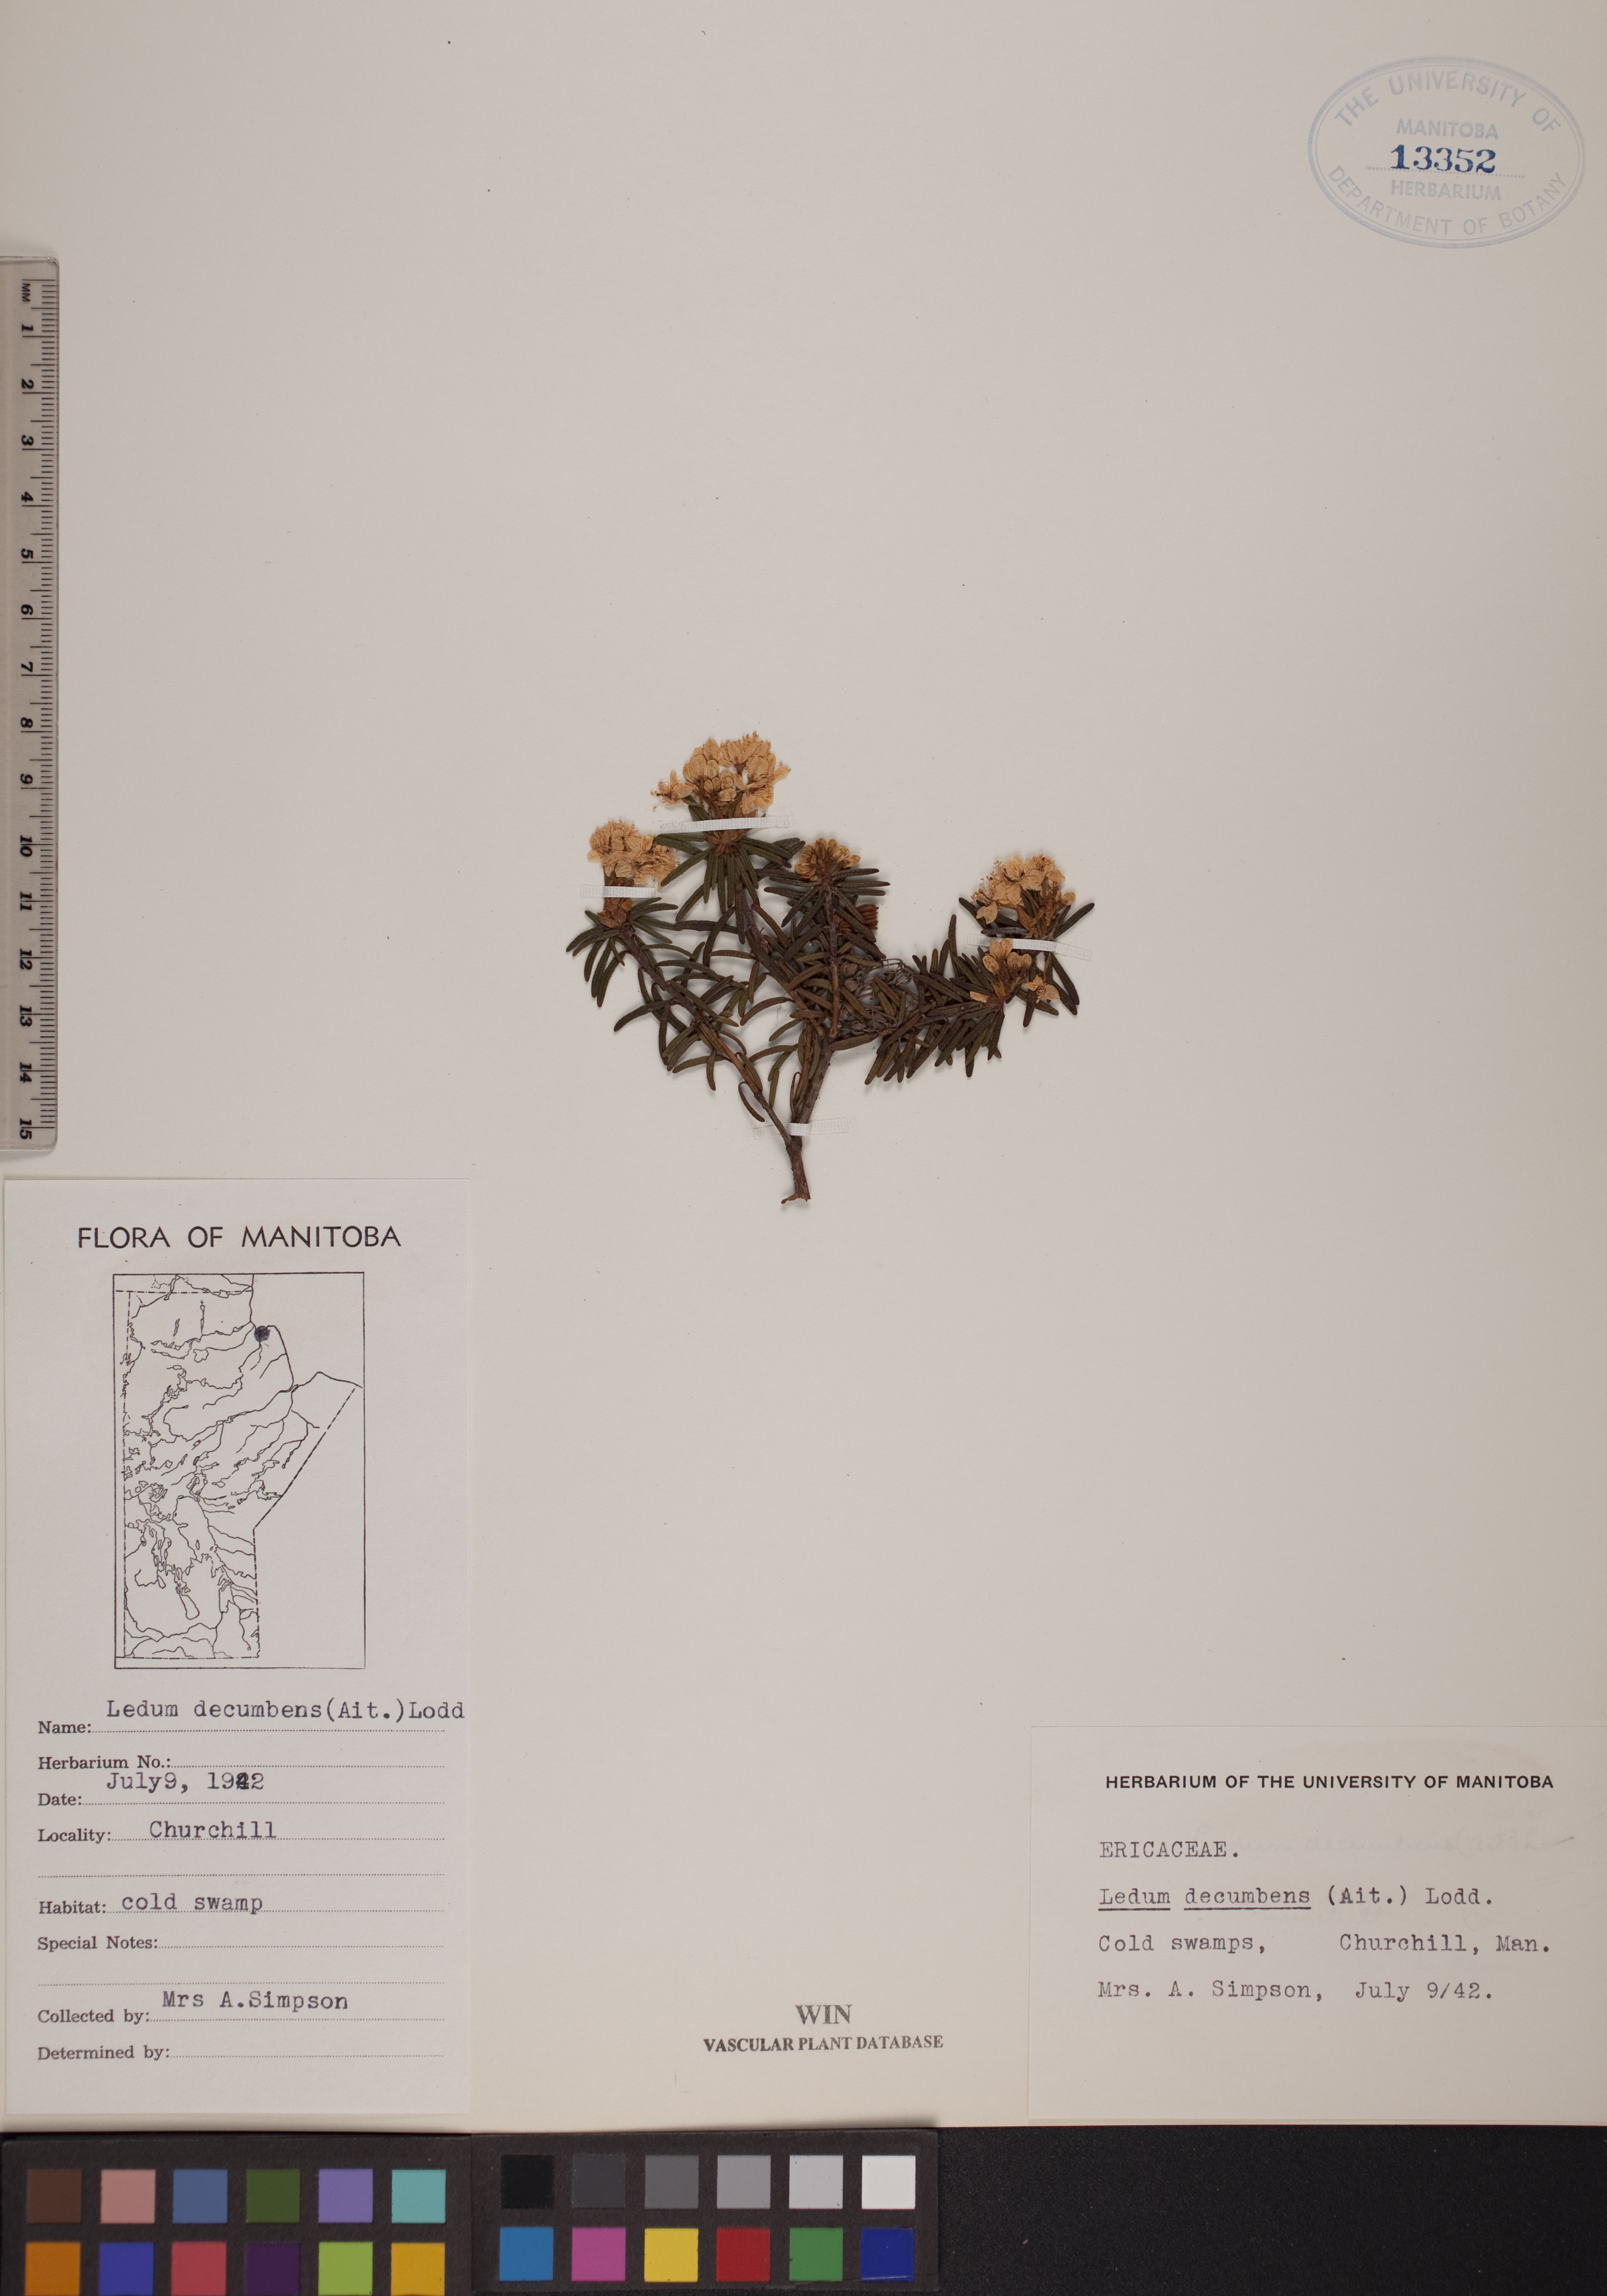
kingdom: Plantae
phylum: Tracheophyta
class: Magnoliopsida
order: Ericales
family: Ericaceae
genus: Rhododendron
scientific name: Rhododendron tomentosum
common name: Marsh labrador tea
